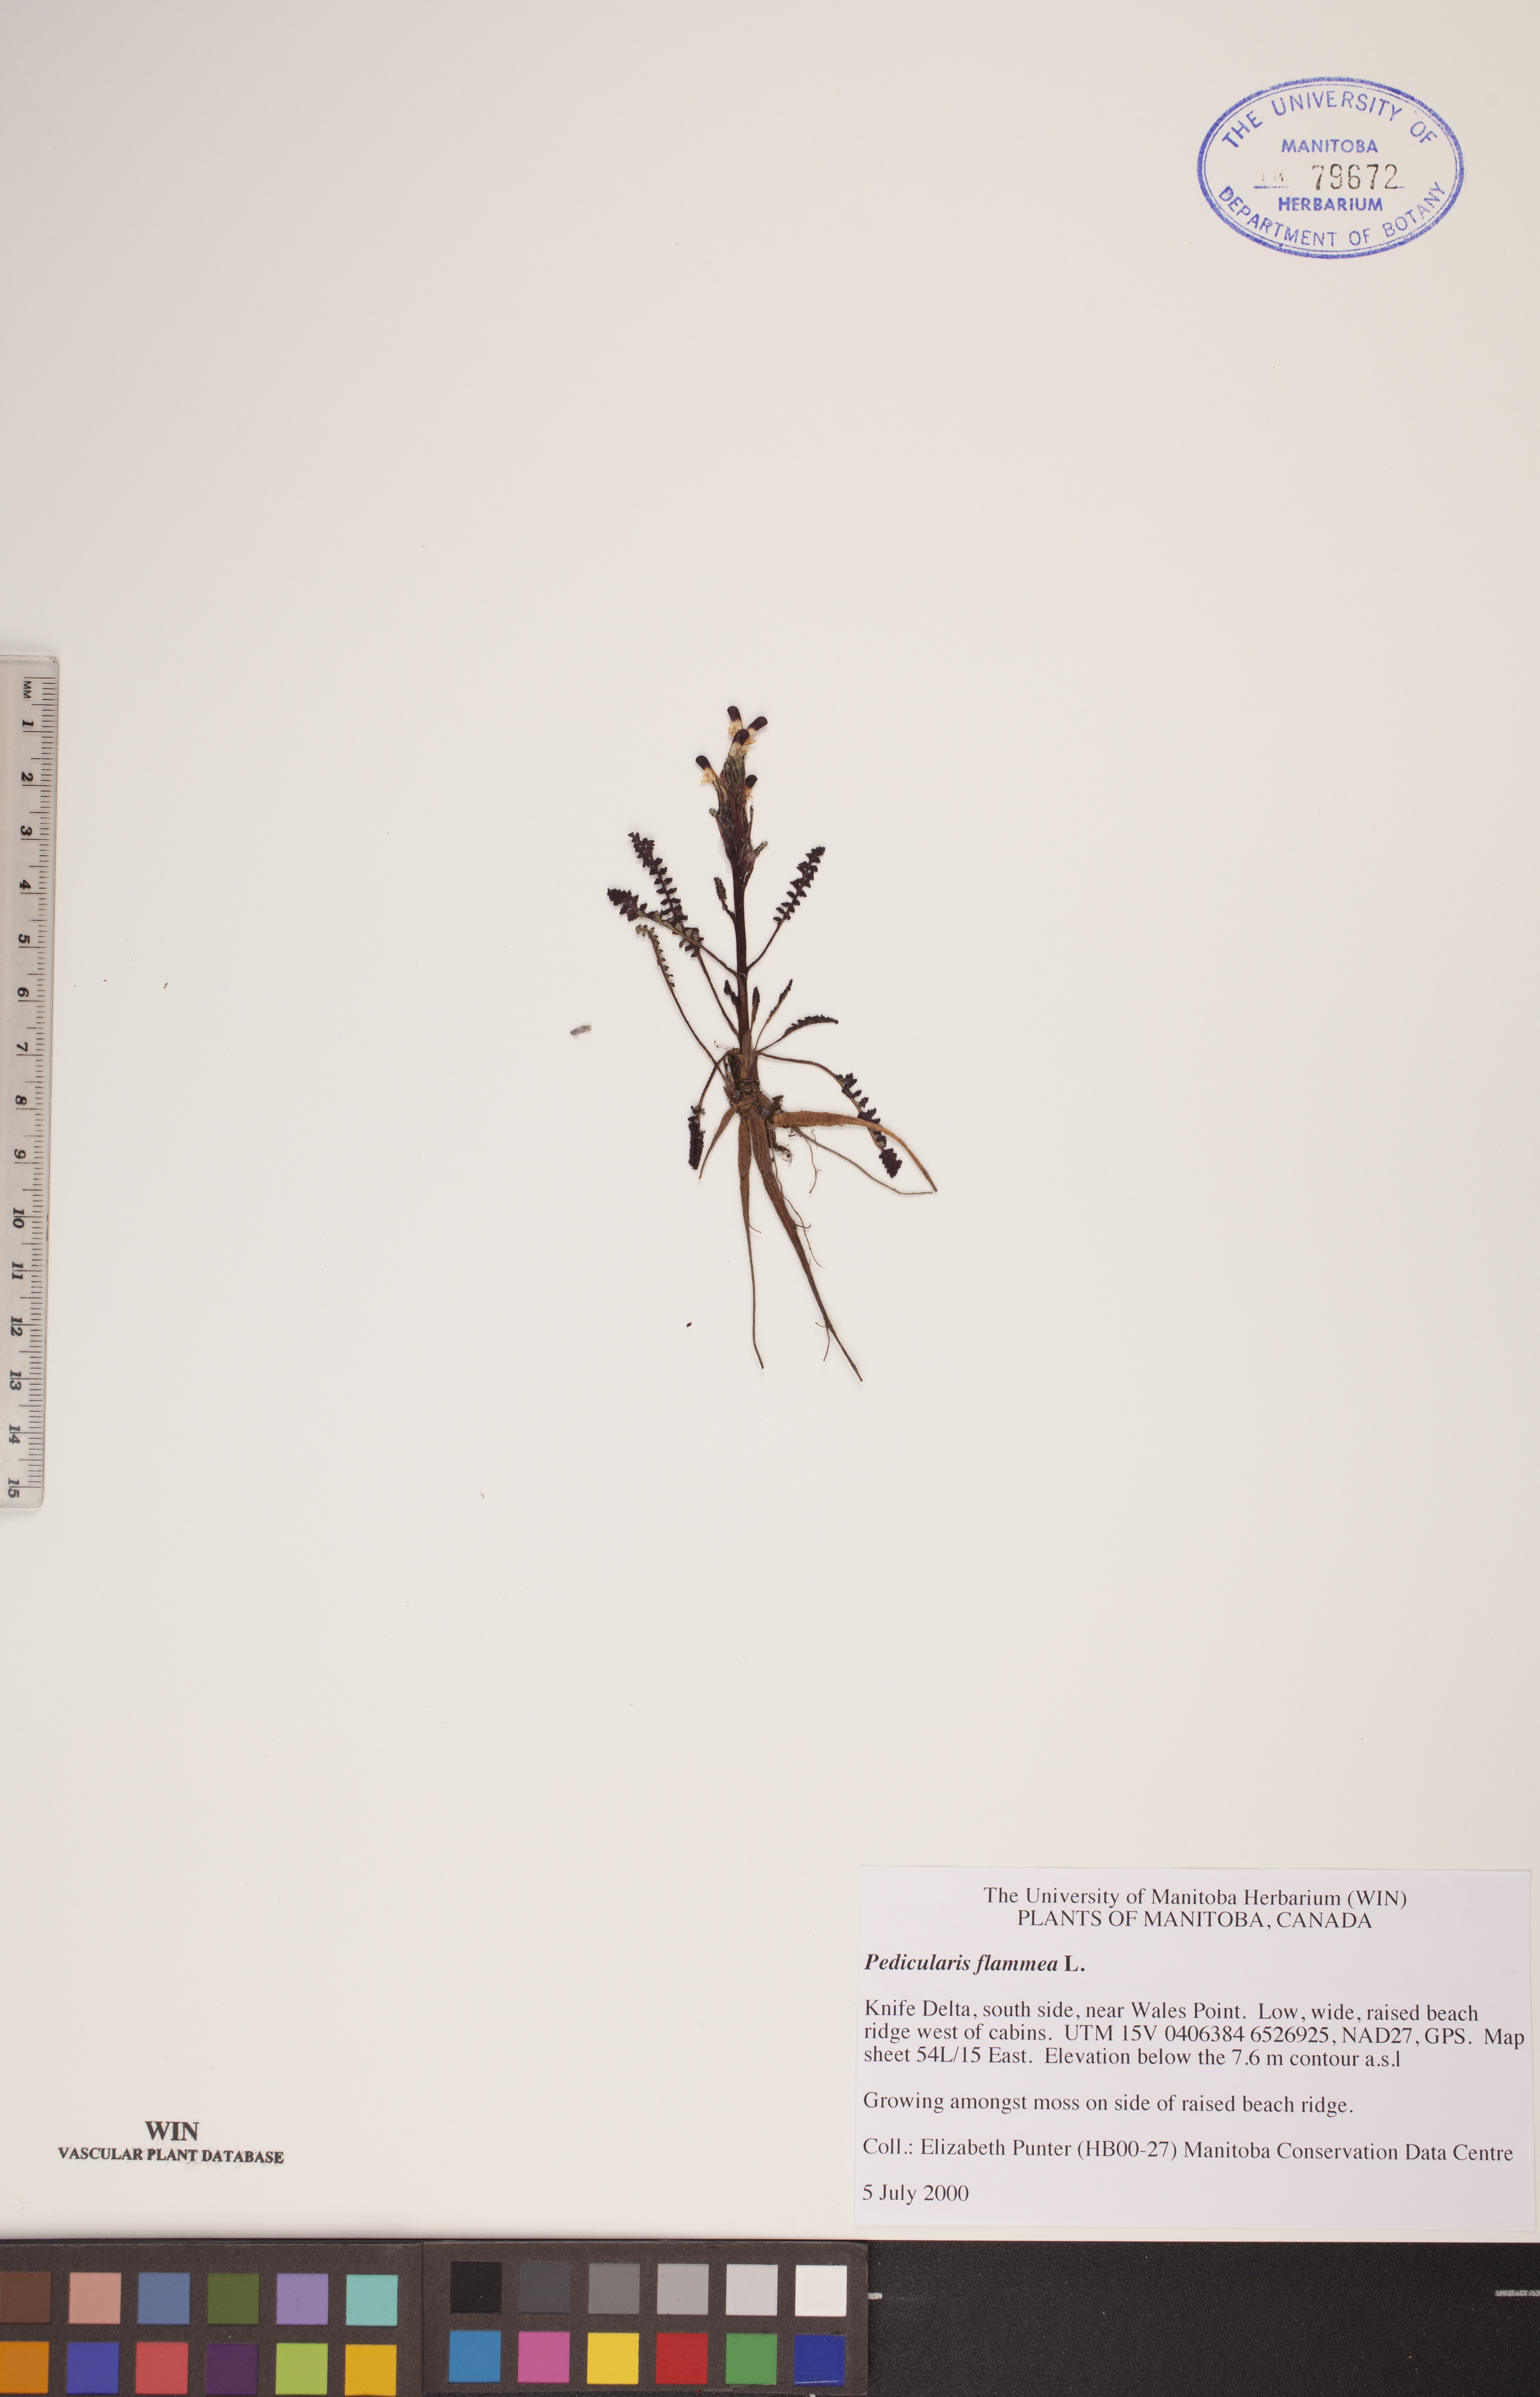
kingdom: Plantae
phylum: Tracheophyta
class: Magnoliopsida
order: Lamiales
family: Orobanchaceae
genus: Pedicularis
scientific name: Pedicularis flammea
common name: Flame-coloured lousewort
